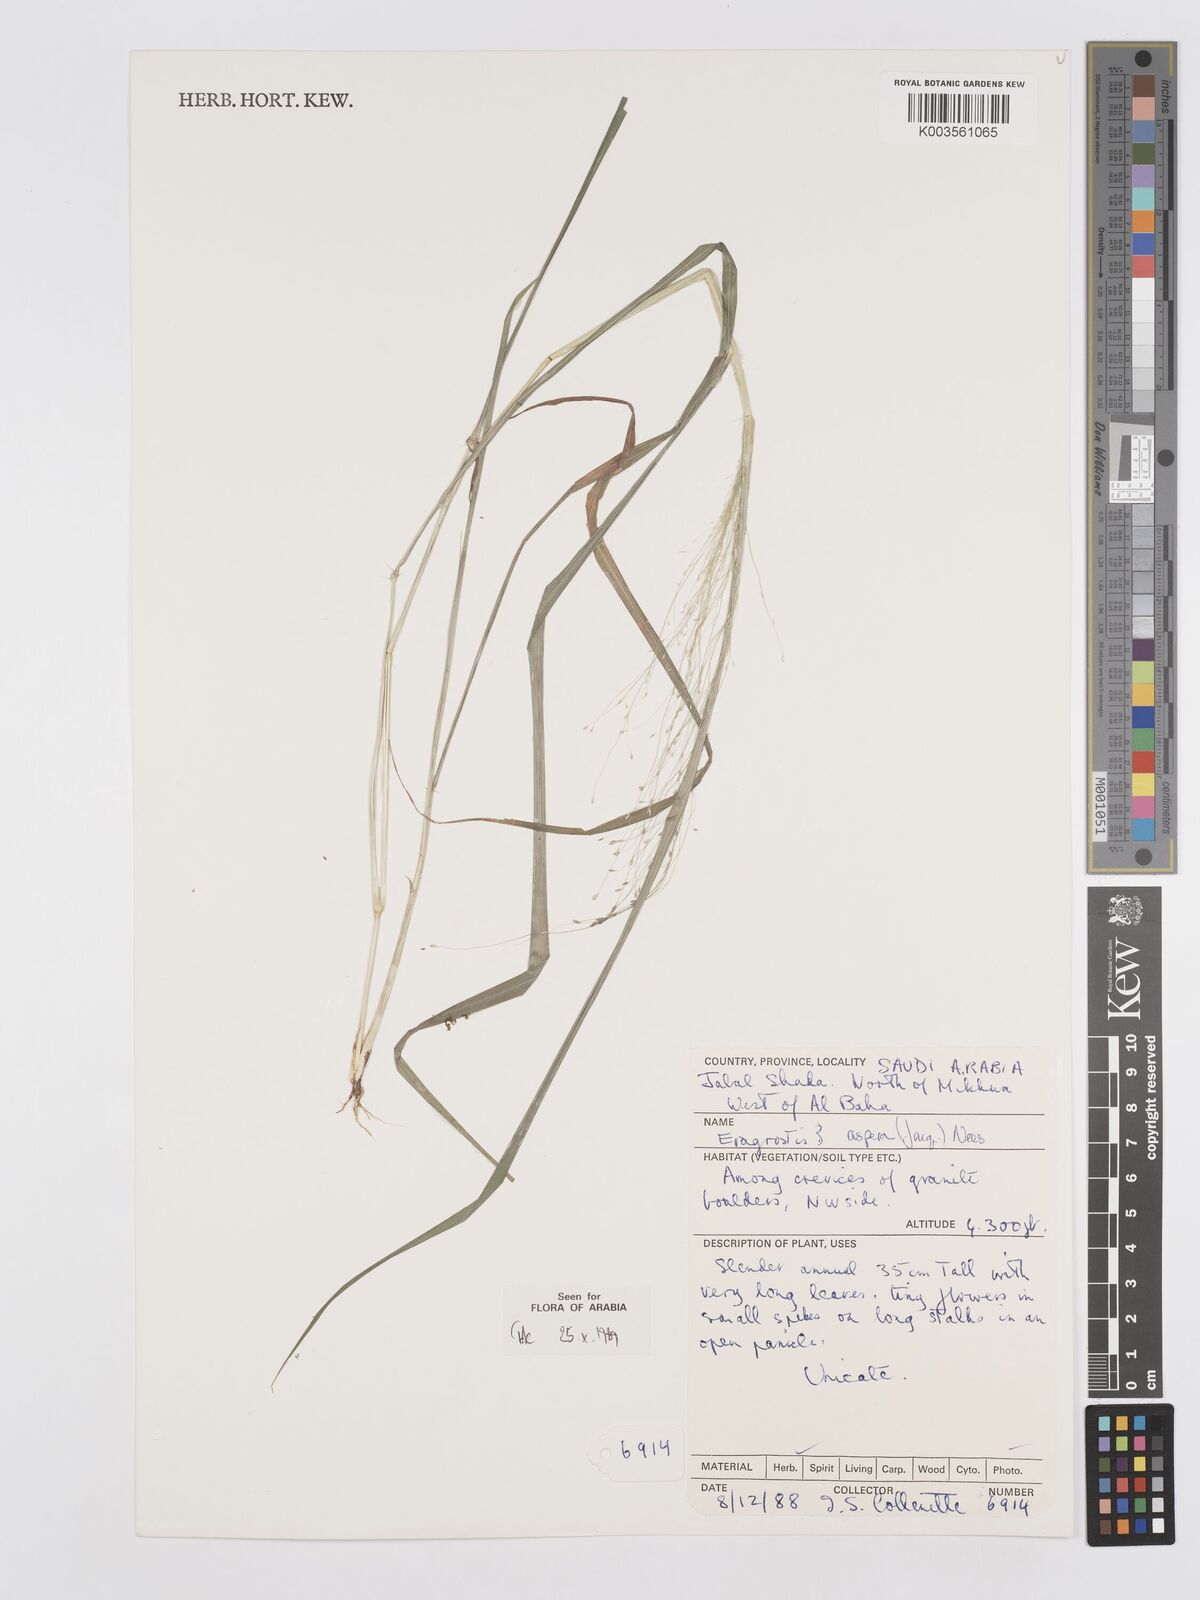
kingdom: Plantae
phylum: Tracheophyta
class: Liliopsida
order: Poales
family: Poaceae
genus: Eragrostis
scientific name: Eragrostis aspera
